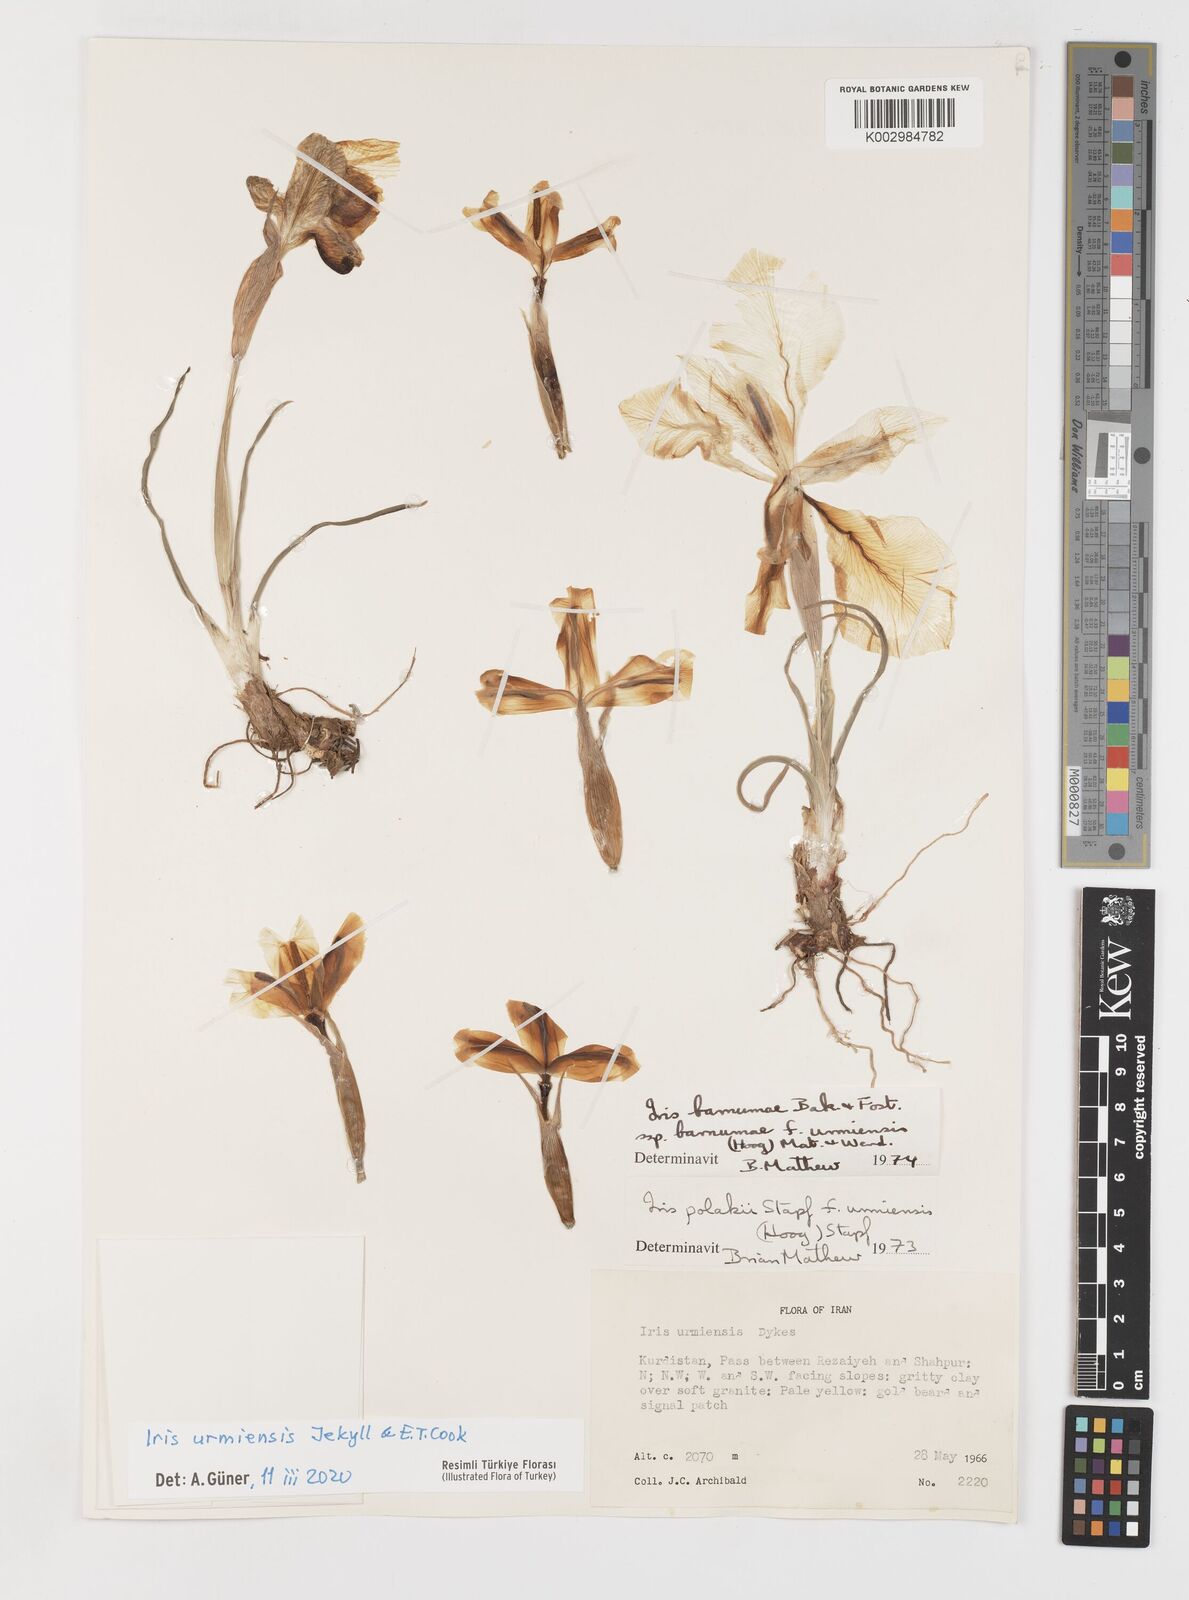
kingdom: Plantae
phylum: Tracheophyta
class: Liliopsida
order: Asparagales
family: Iridaceae
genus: Iris
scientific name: Iris urmiensis
